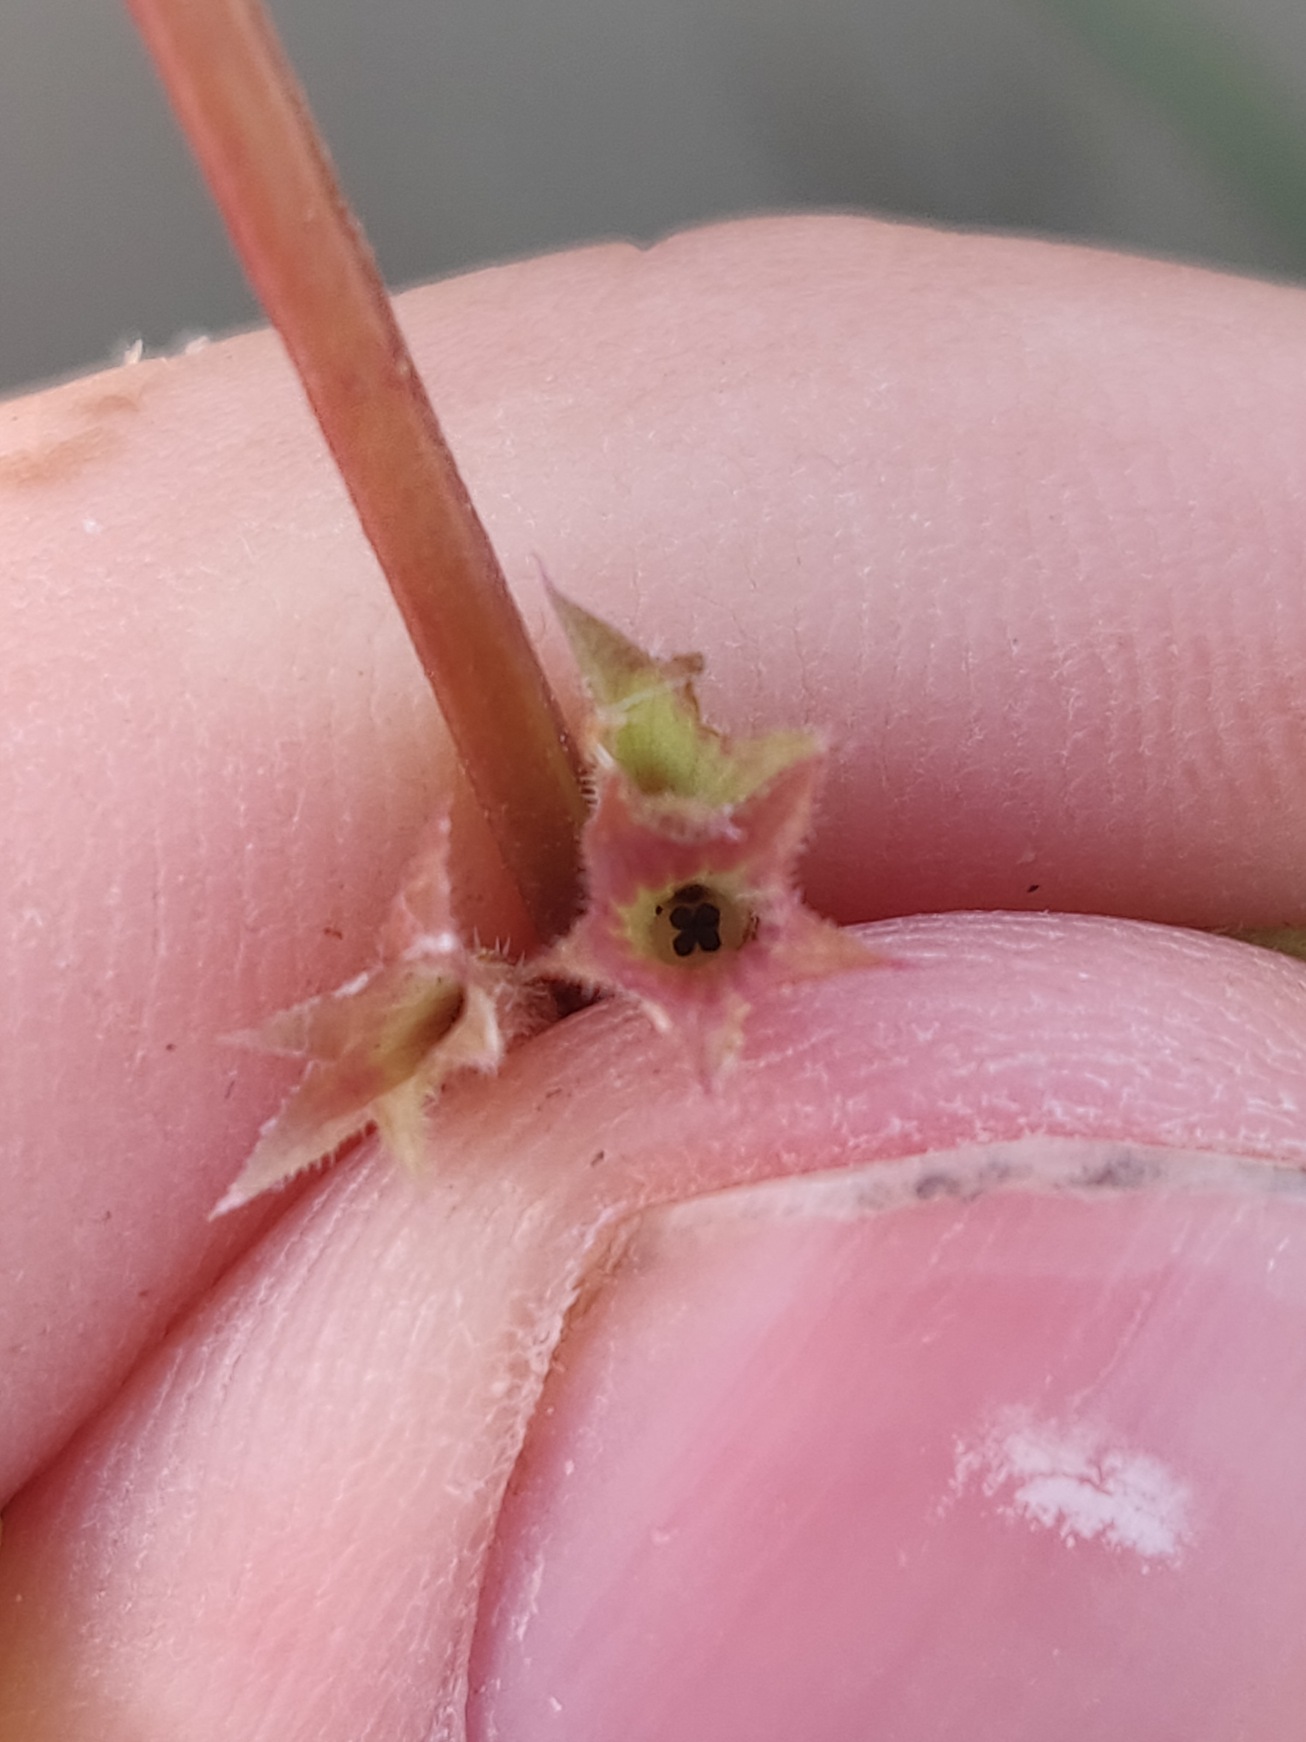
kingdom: Plantae
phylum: Tracheophyta
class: Magnoliopsida
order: Lamiales
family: Lamiaceae
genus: Glechoma
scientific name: Glechoma hederacea
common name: Korsknap
